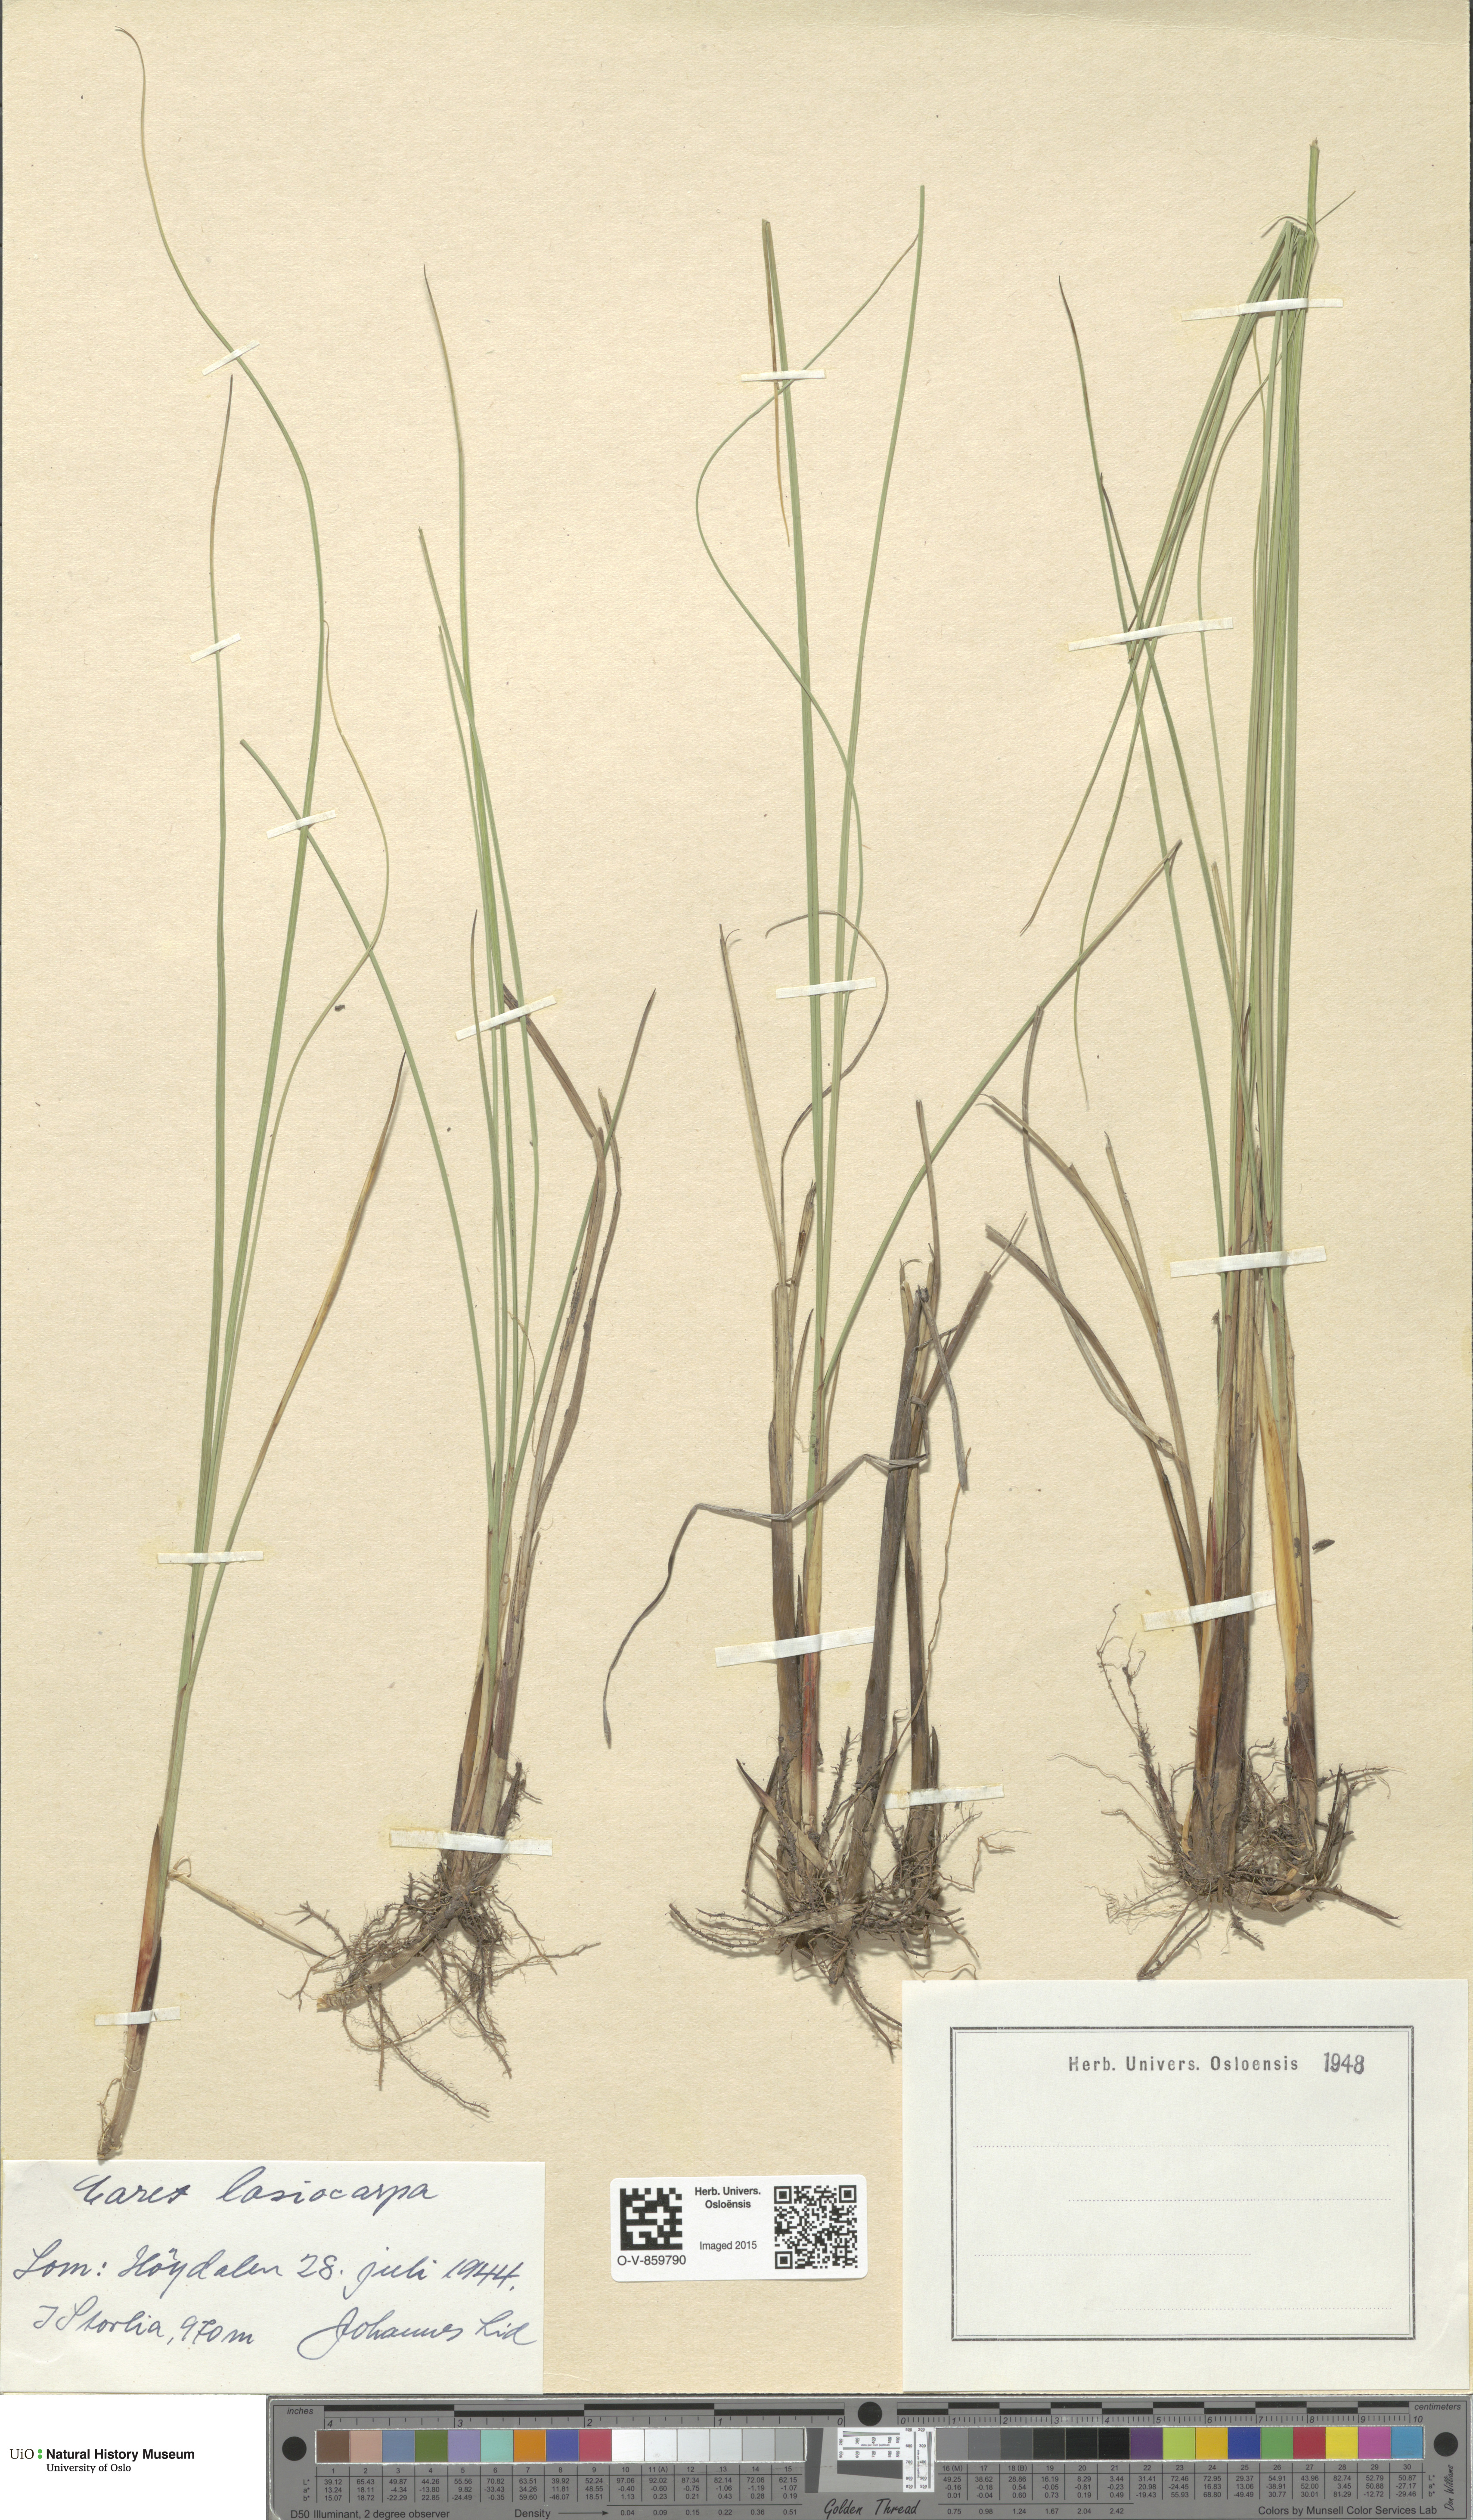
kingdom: Plantae
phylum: Tracheophyta
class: Liliopsida
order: Poales
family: Cyperaceae
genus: Carex
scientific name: Carex lasiocarpa
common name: Slender sedge
